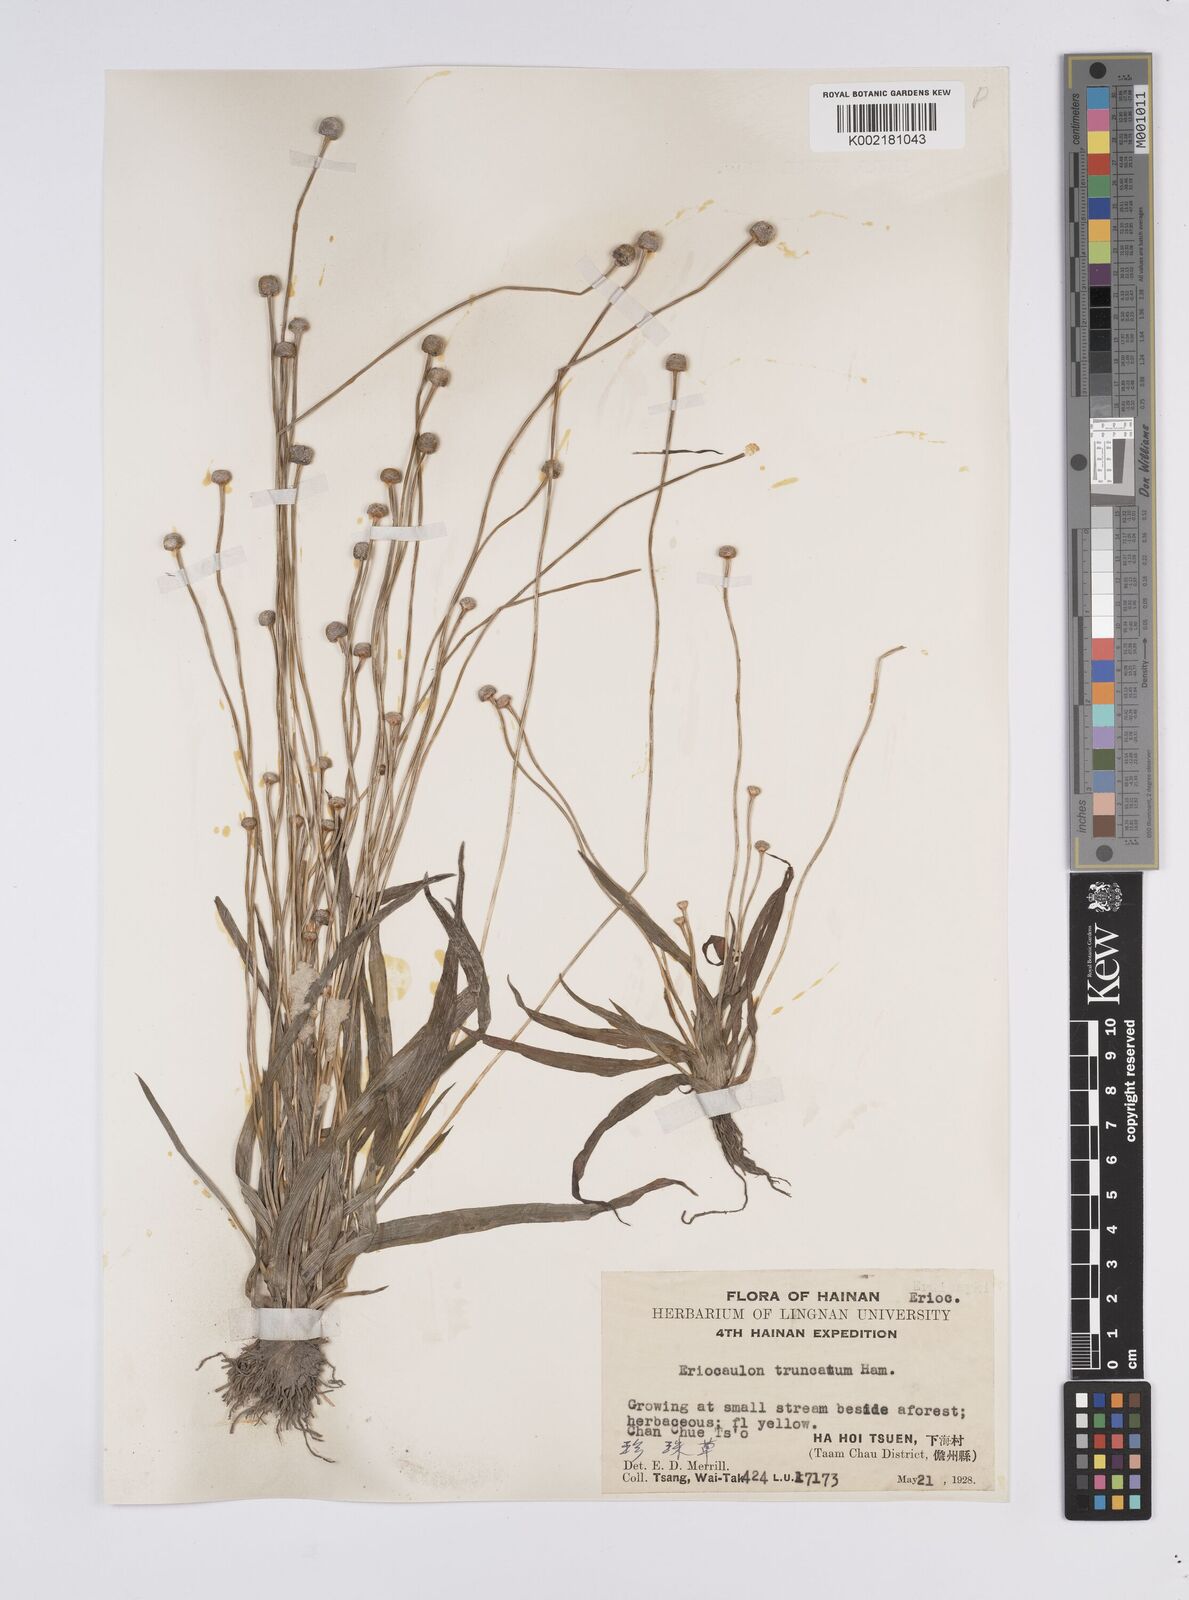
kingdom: Plantae
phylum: Tracheophyta
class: Liliopsida
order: Poales
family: Eriocaulaceae
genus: Eriocaulon
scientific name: Eriocaulon truncatum
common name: Short pipe-wort
